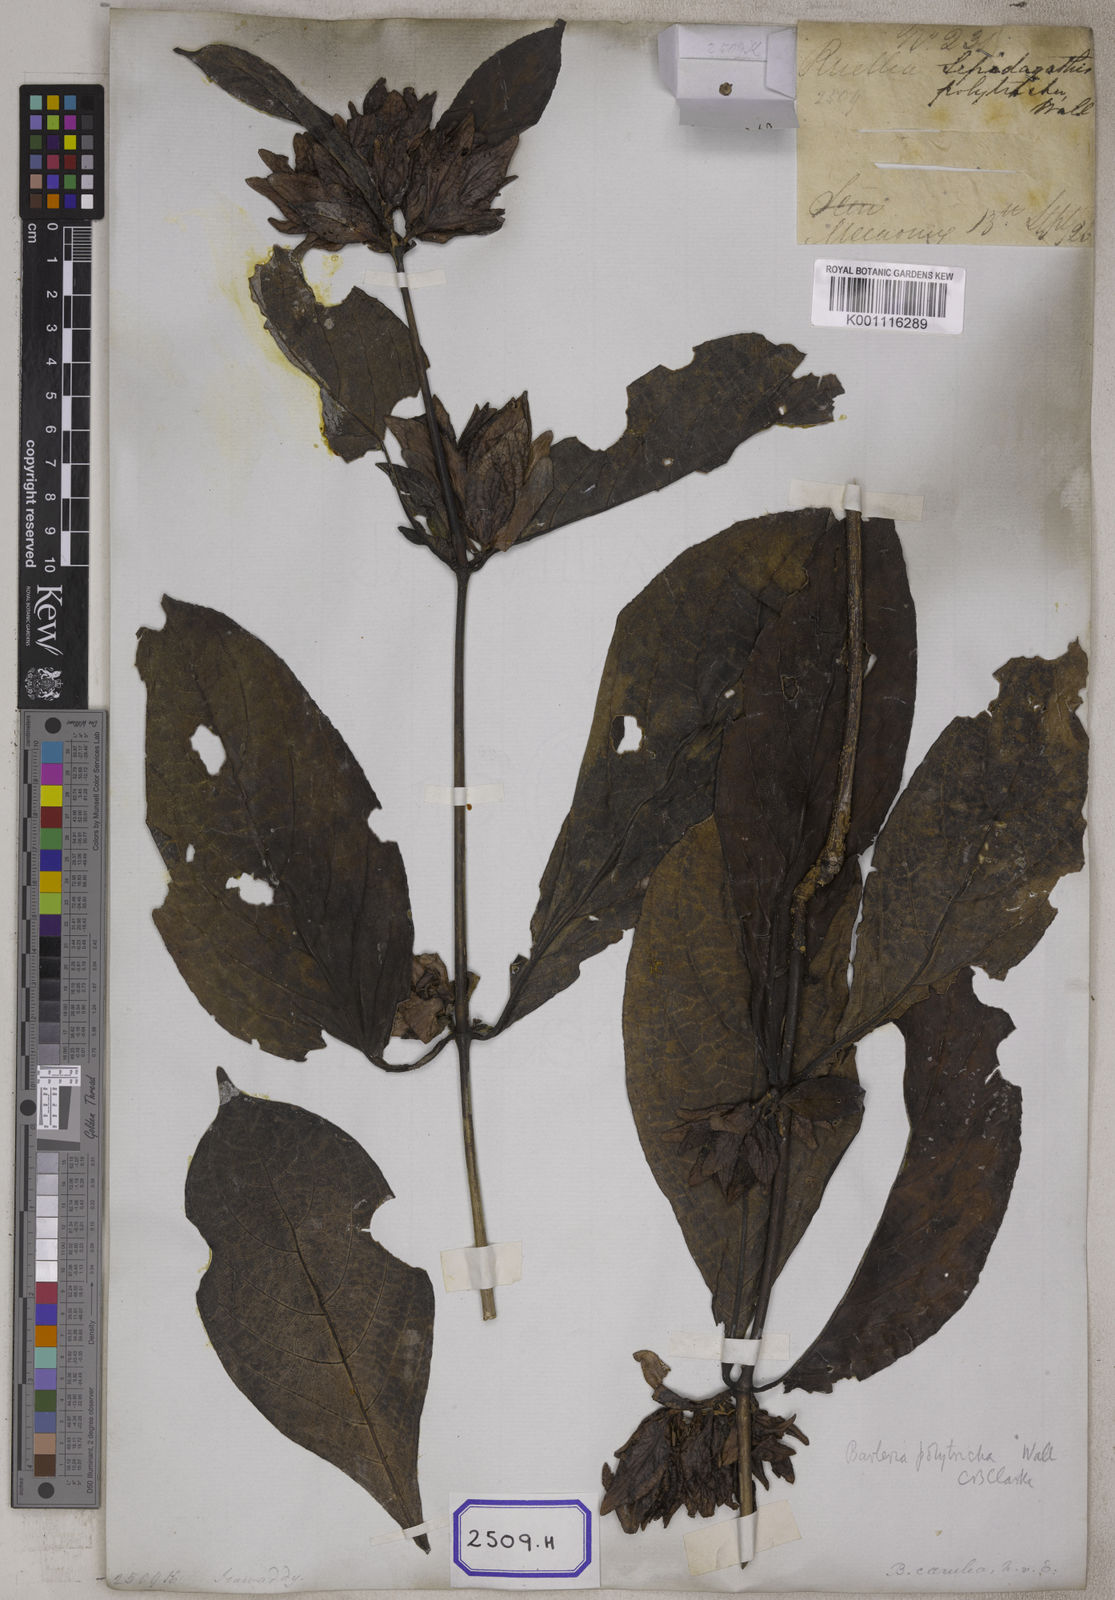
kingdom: Plantae
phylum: Tracheophyta
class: Magnoliopsida
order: Lamiales
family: Acanthaceae
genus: Barleria
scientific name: Barleria strigosa
